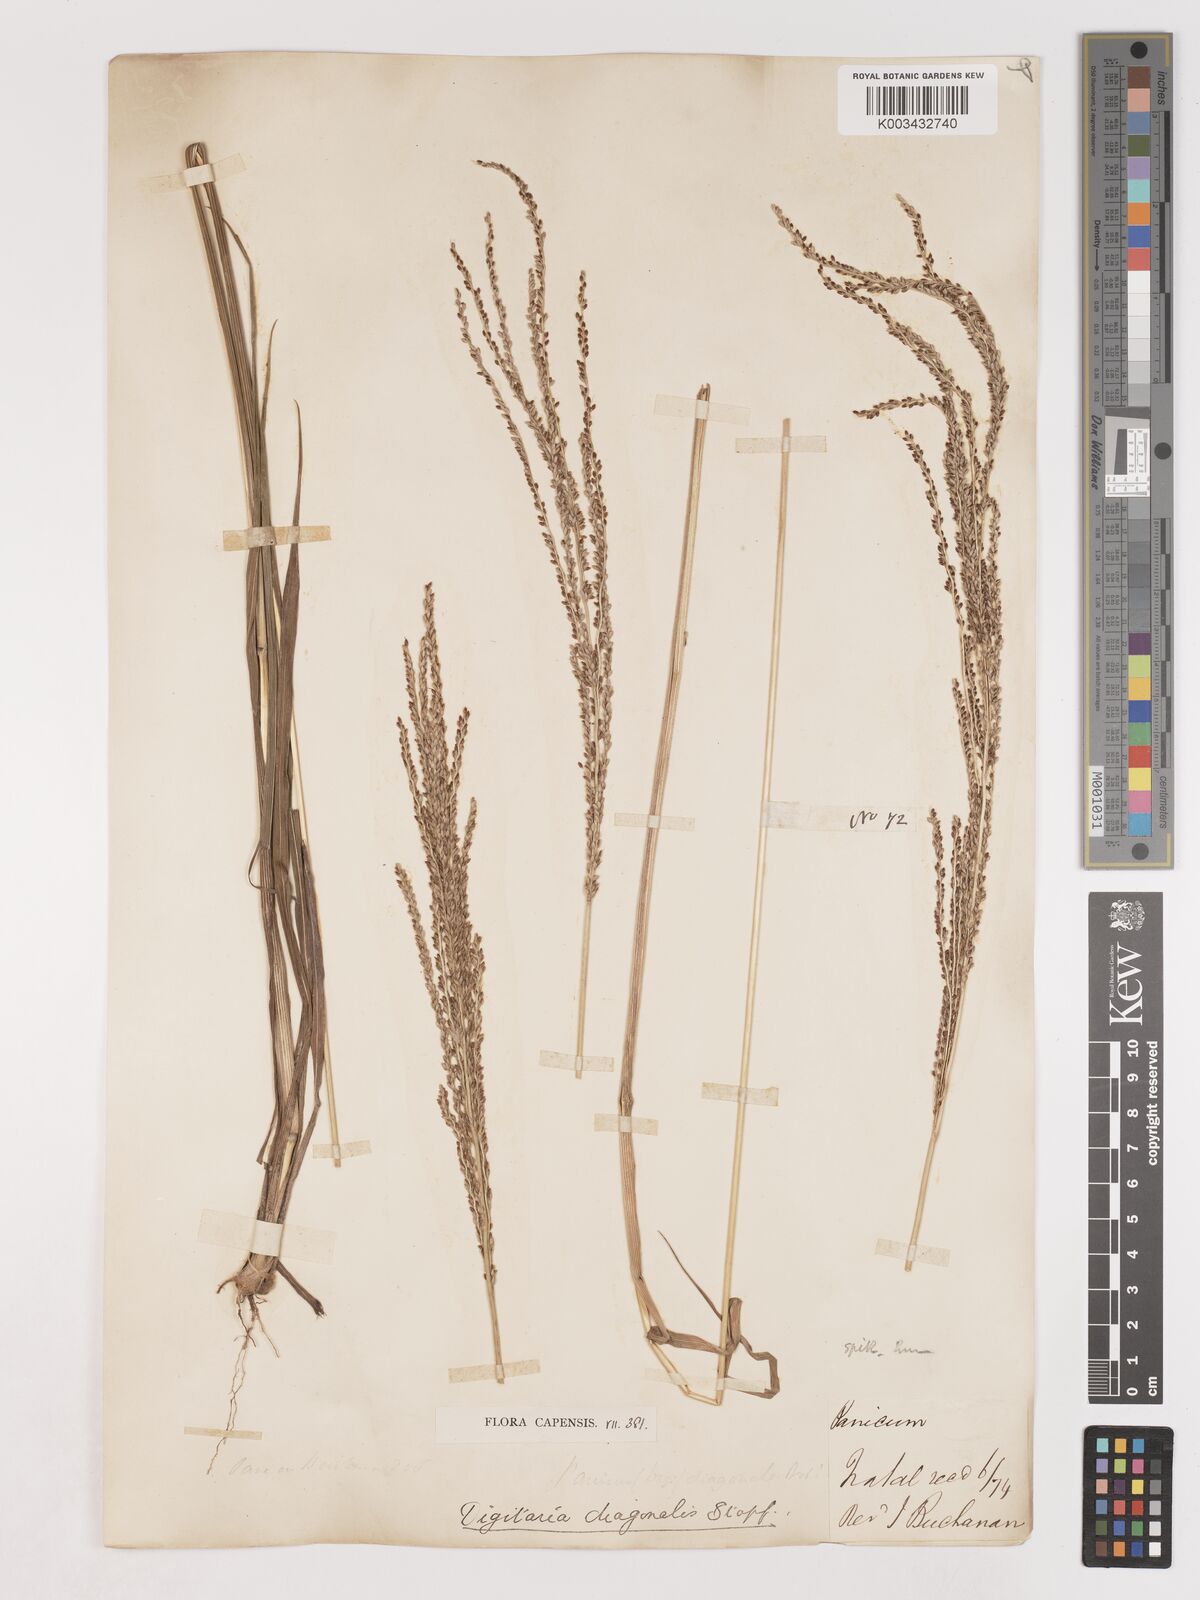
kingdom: Plantae
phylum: Tracheophyta
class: Liliopsida
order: Poales
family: Poaceae
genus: Digitaria
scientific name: Digitaria diagonalis
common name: Brown-seed finger grass
